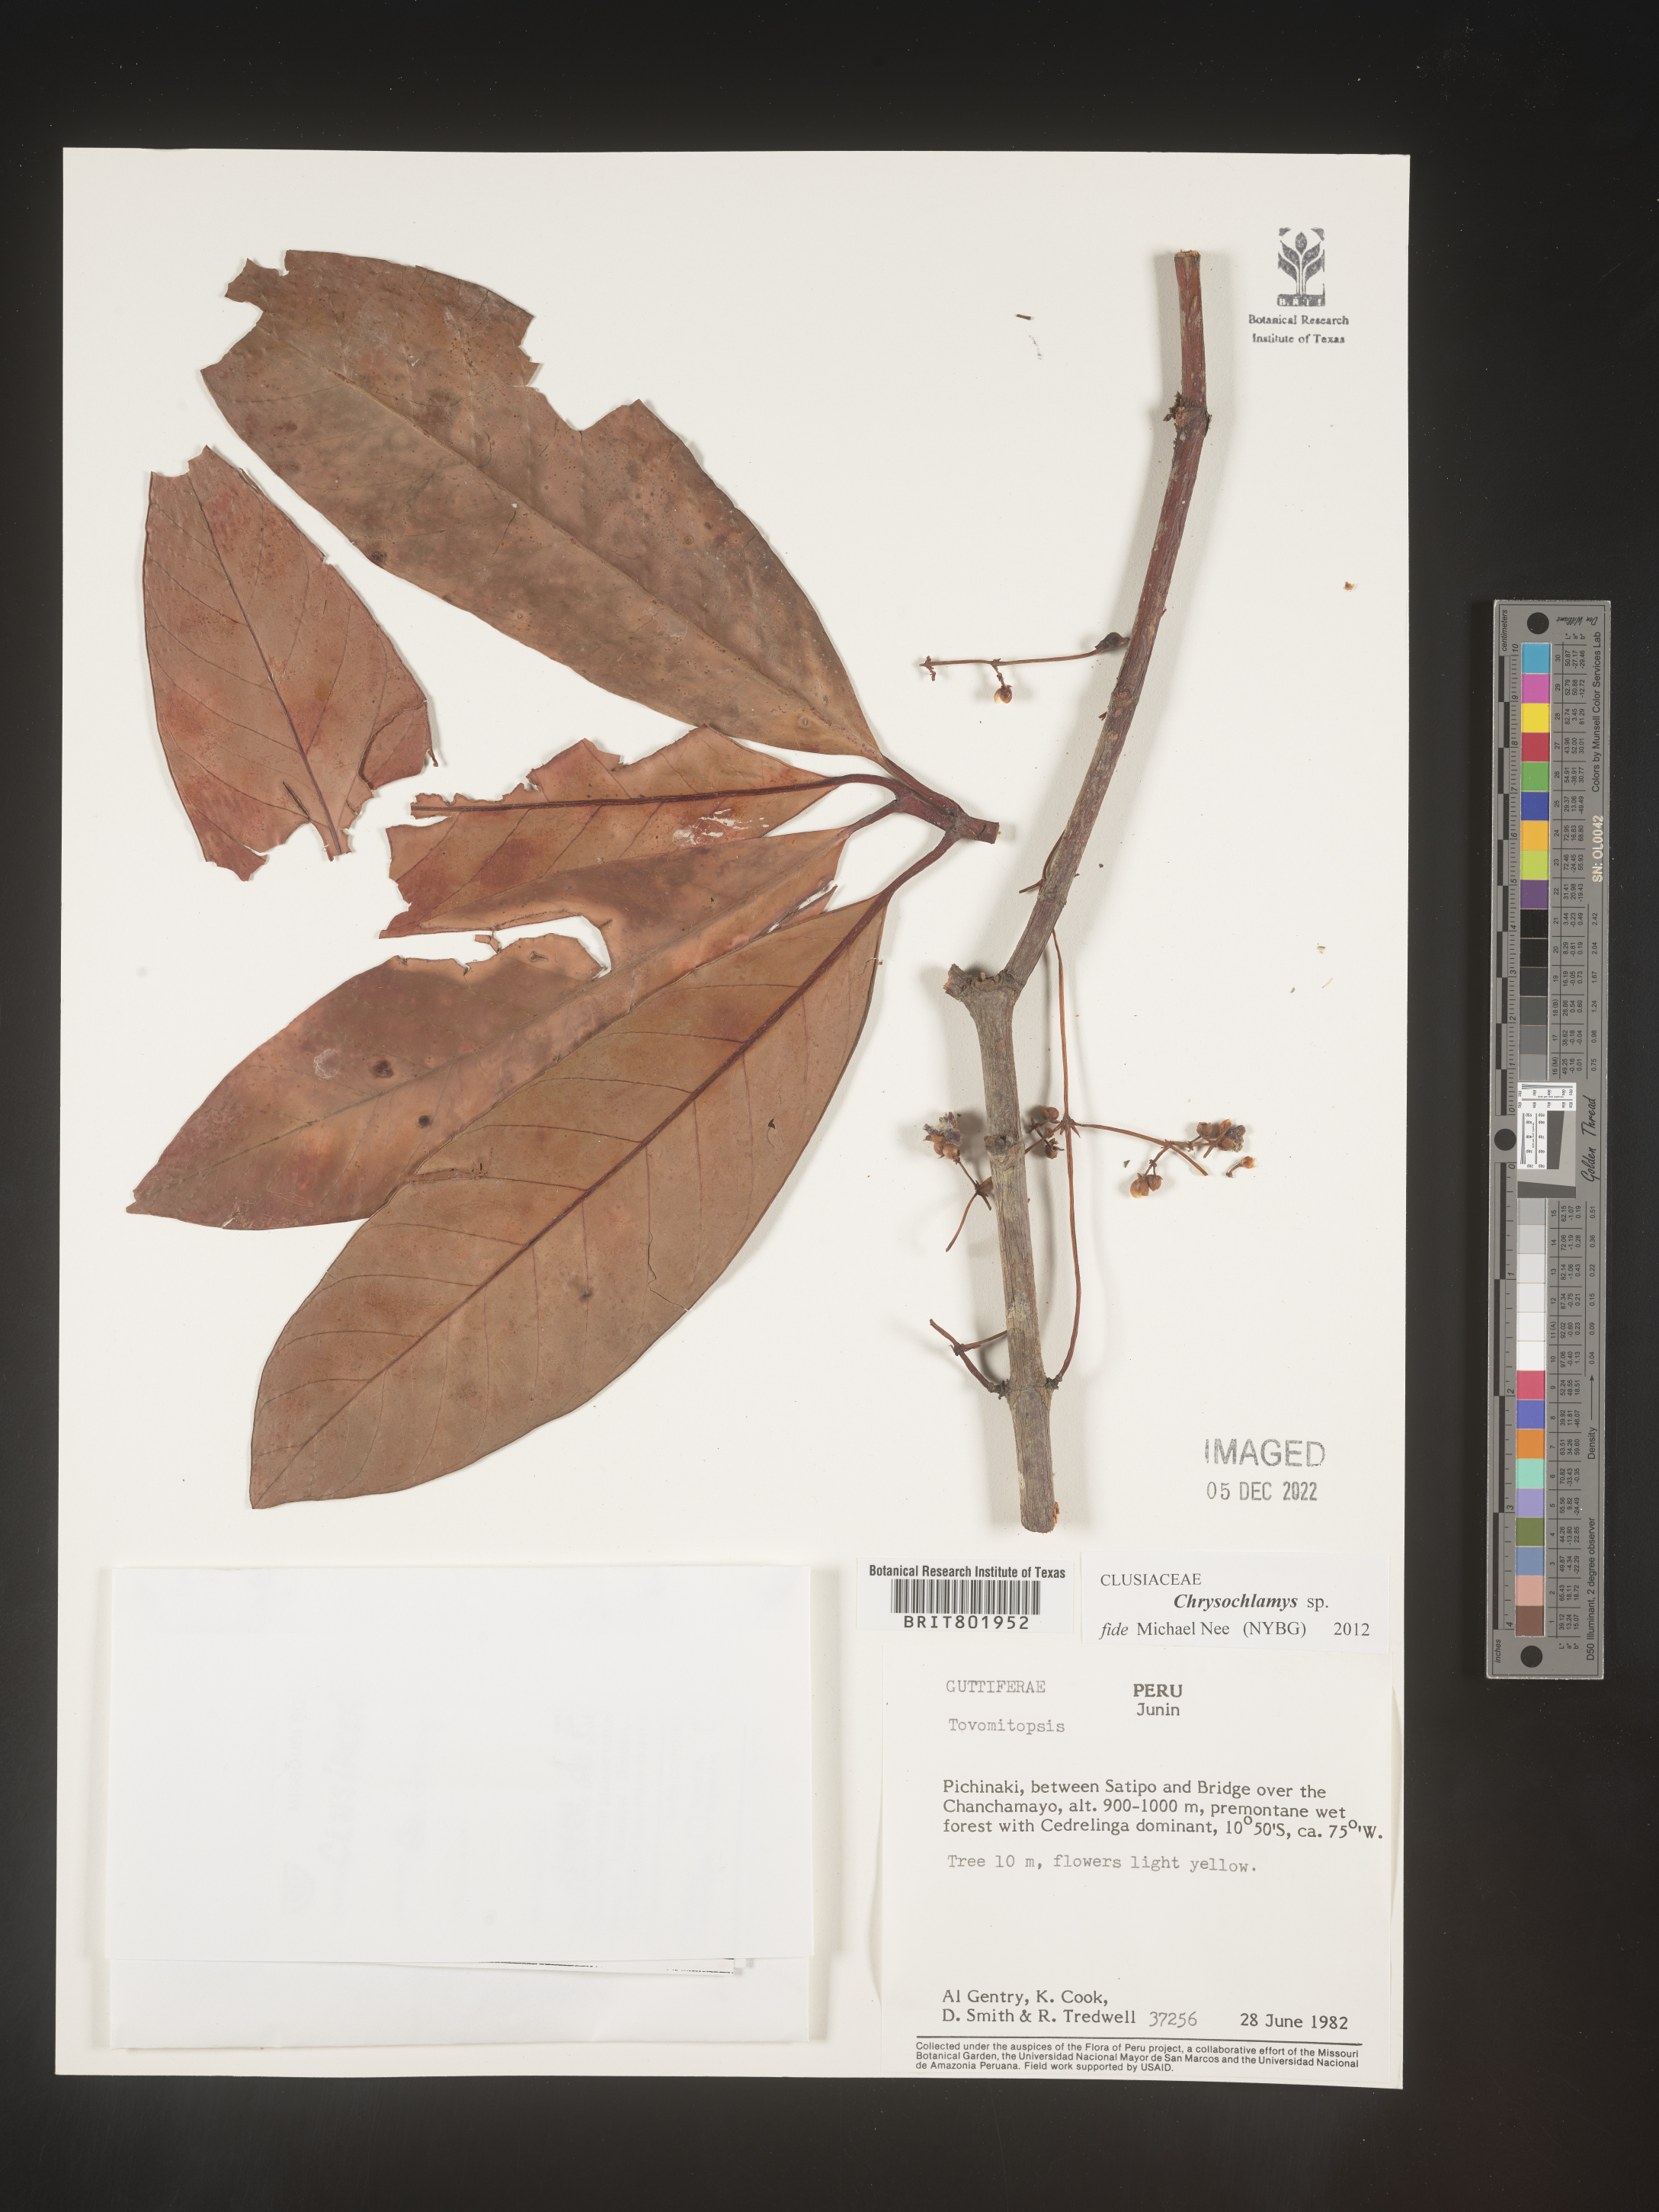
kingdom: Plantae
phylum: Tracheophyta
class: Magnoliopsida
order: Malpighiales
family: Clusiaceae
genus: Chrysochlamys
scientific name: Chrysochlamys
